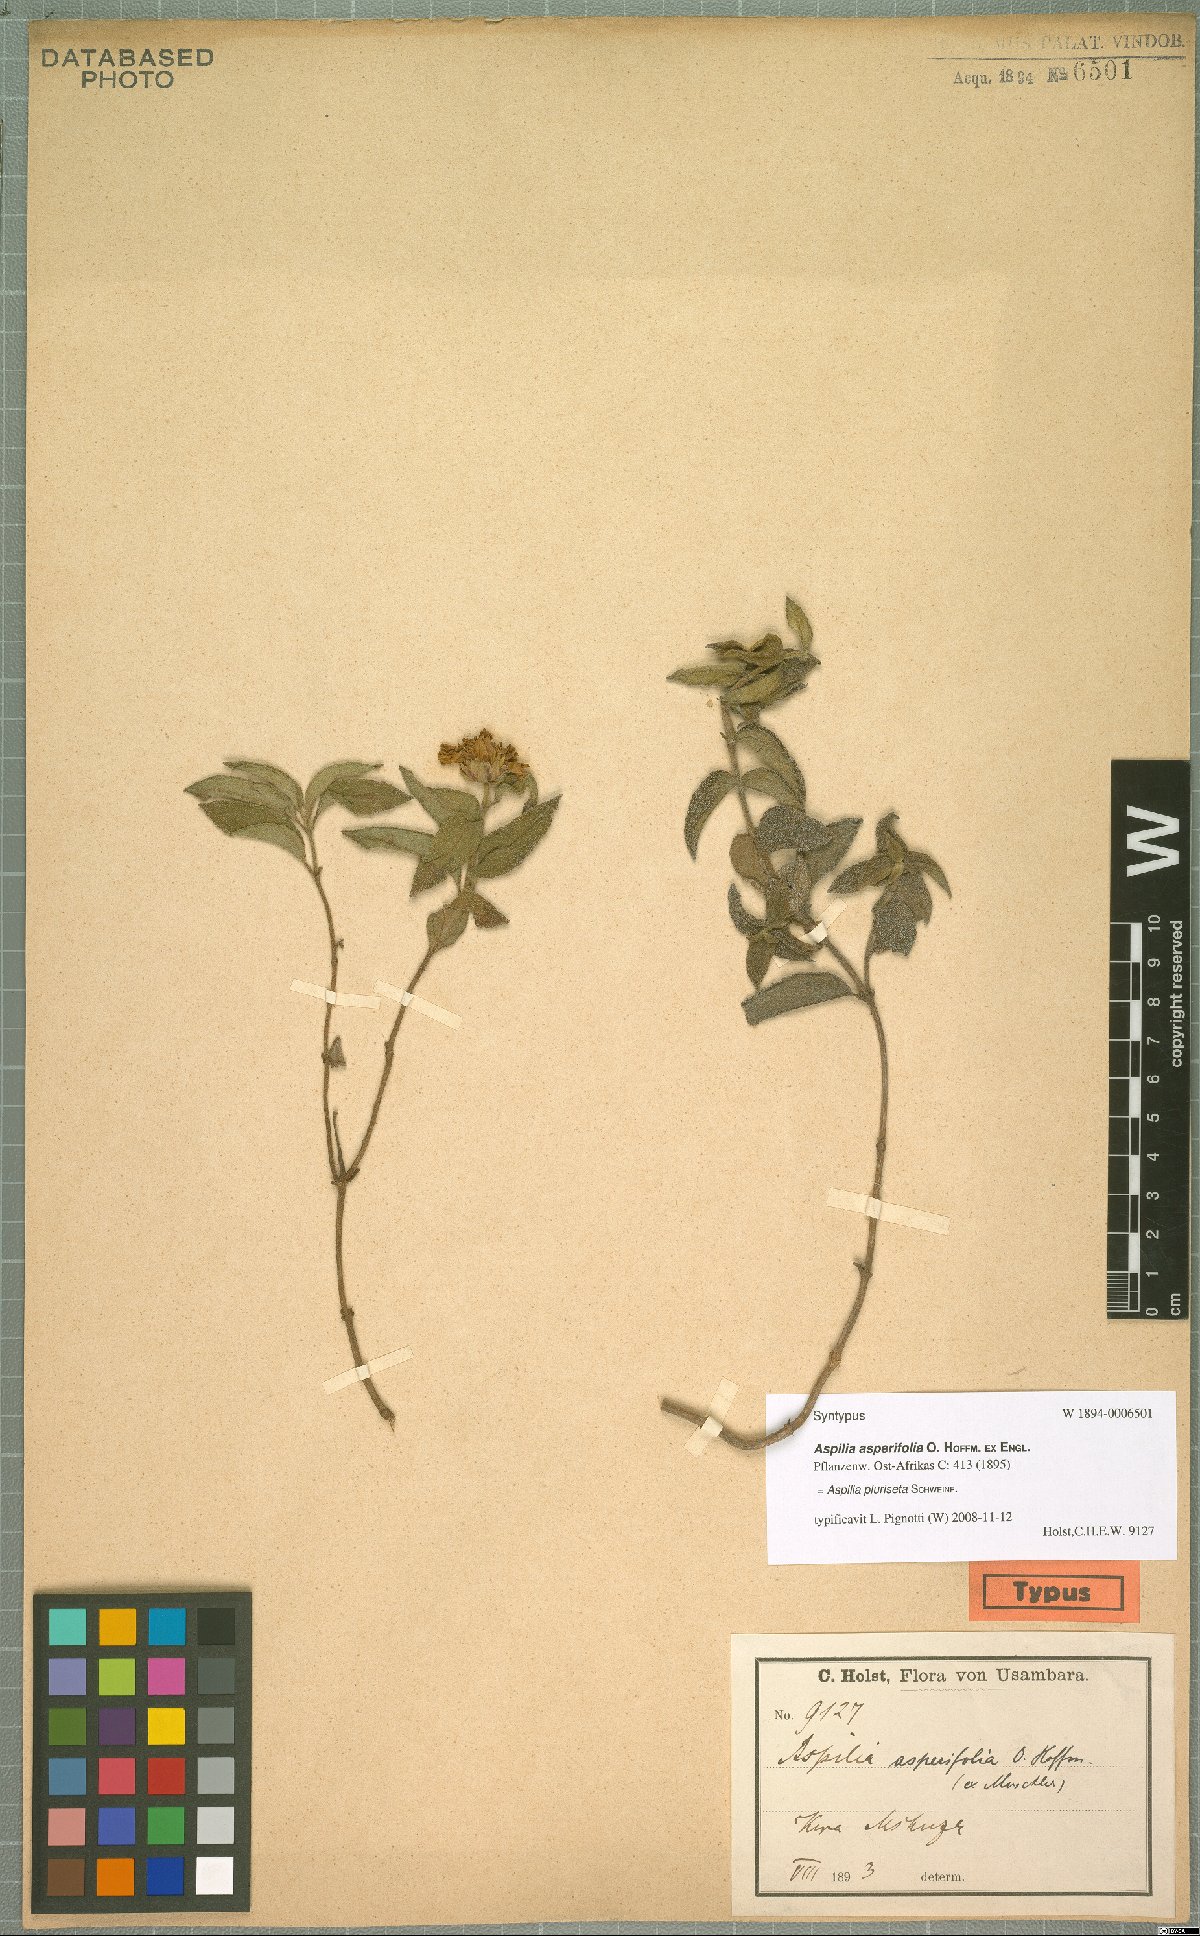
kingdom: Plantae
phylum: Tracheophyta
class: Magnoliopsida
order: Asterales
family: Asteraceae
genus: Aspilia
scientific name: Aspilia pluriseta
